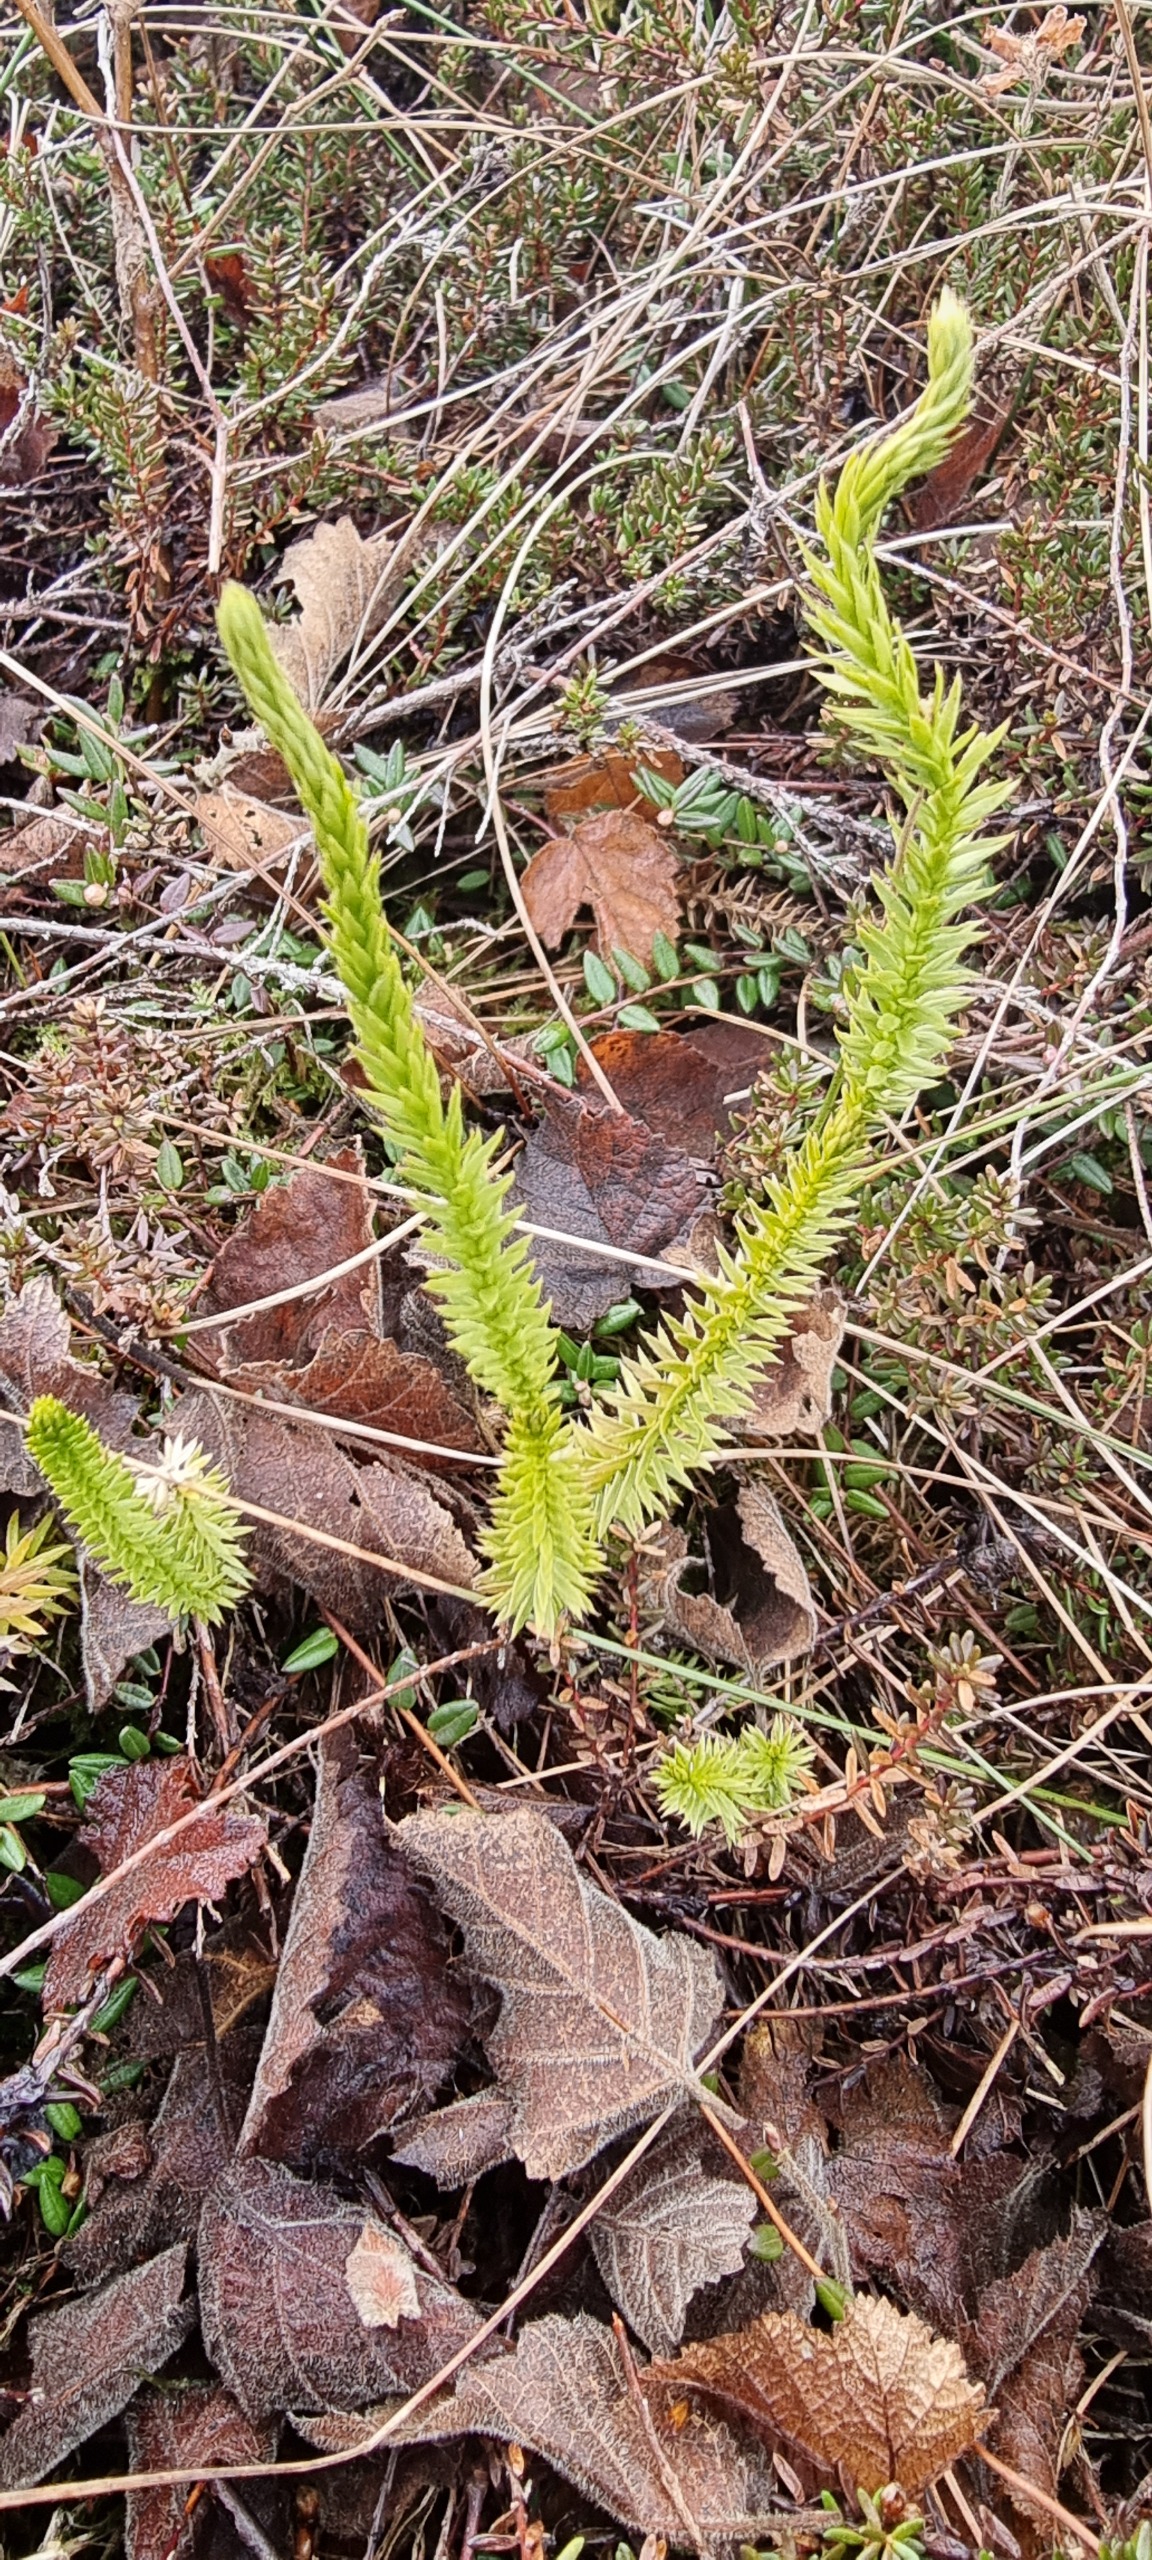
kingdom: Plantae
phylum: Tracheophyta
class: Lycopodiopsida
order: Lycopodiales
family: Lycopodiaceae
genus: Spinulum
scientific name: Spinulum annotinum
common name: Femradet ulvefod
